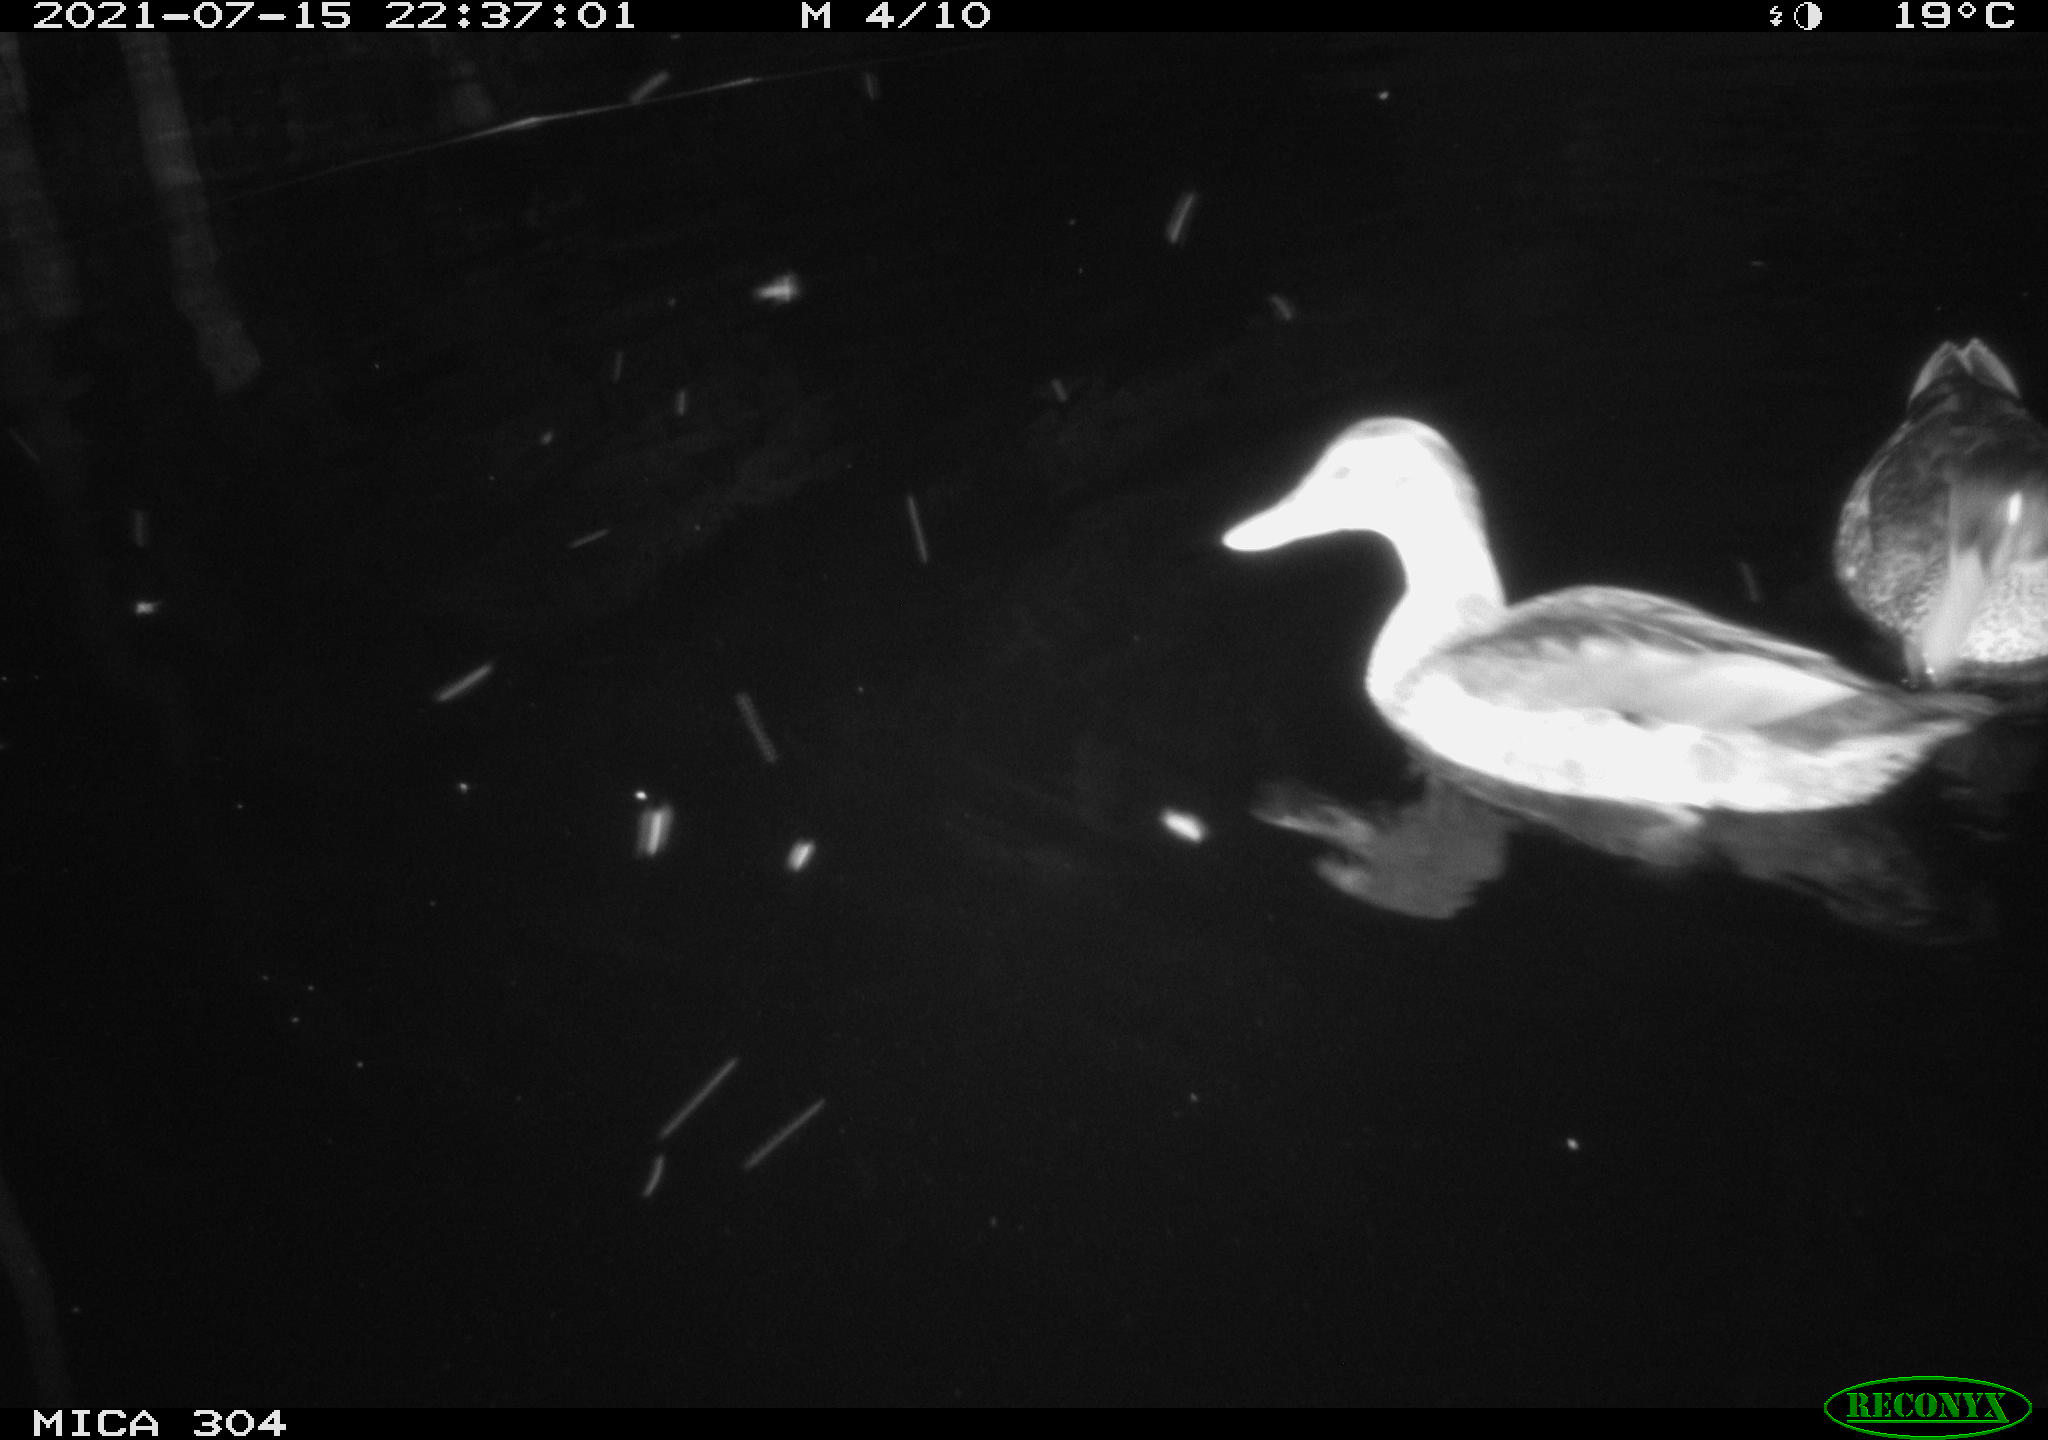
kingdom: Animalia
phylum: Chordata
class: Aves
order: Anseriformes
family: Anatidae
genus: Mareca
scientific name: Mareca strepera
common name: Gadwall
